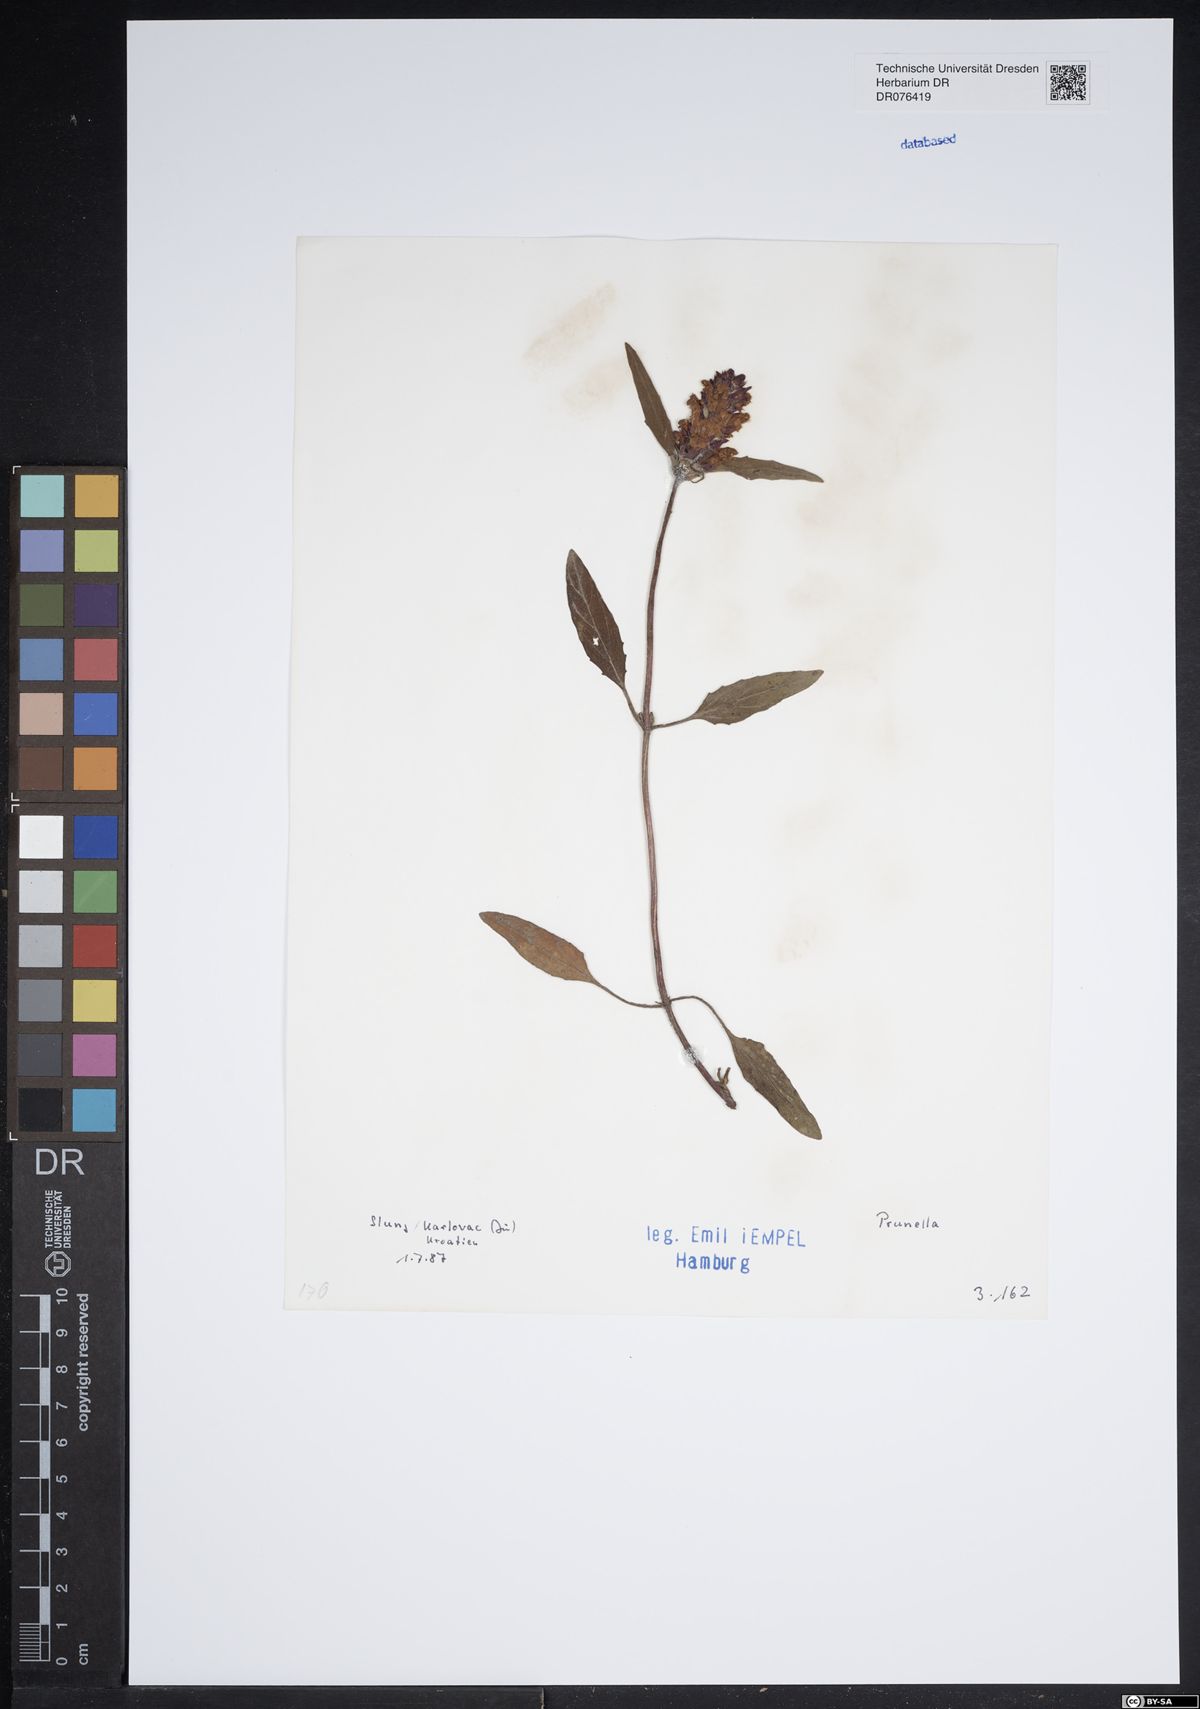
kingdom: Plantae
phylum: Tracheophyta
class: Magnoliopsida
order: Lamiales
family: Lamiaceae
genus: Prunella
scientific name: Prunella
